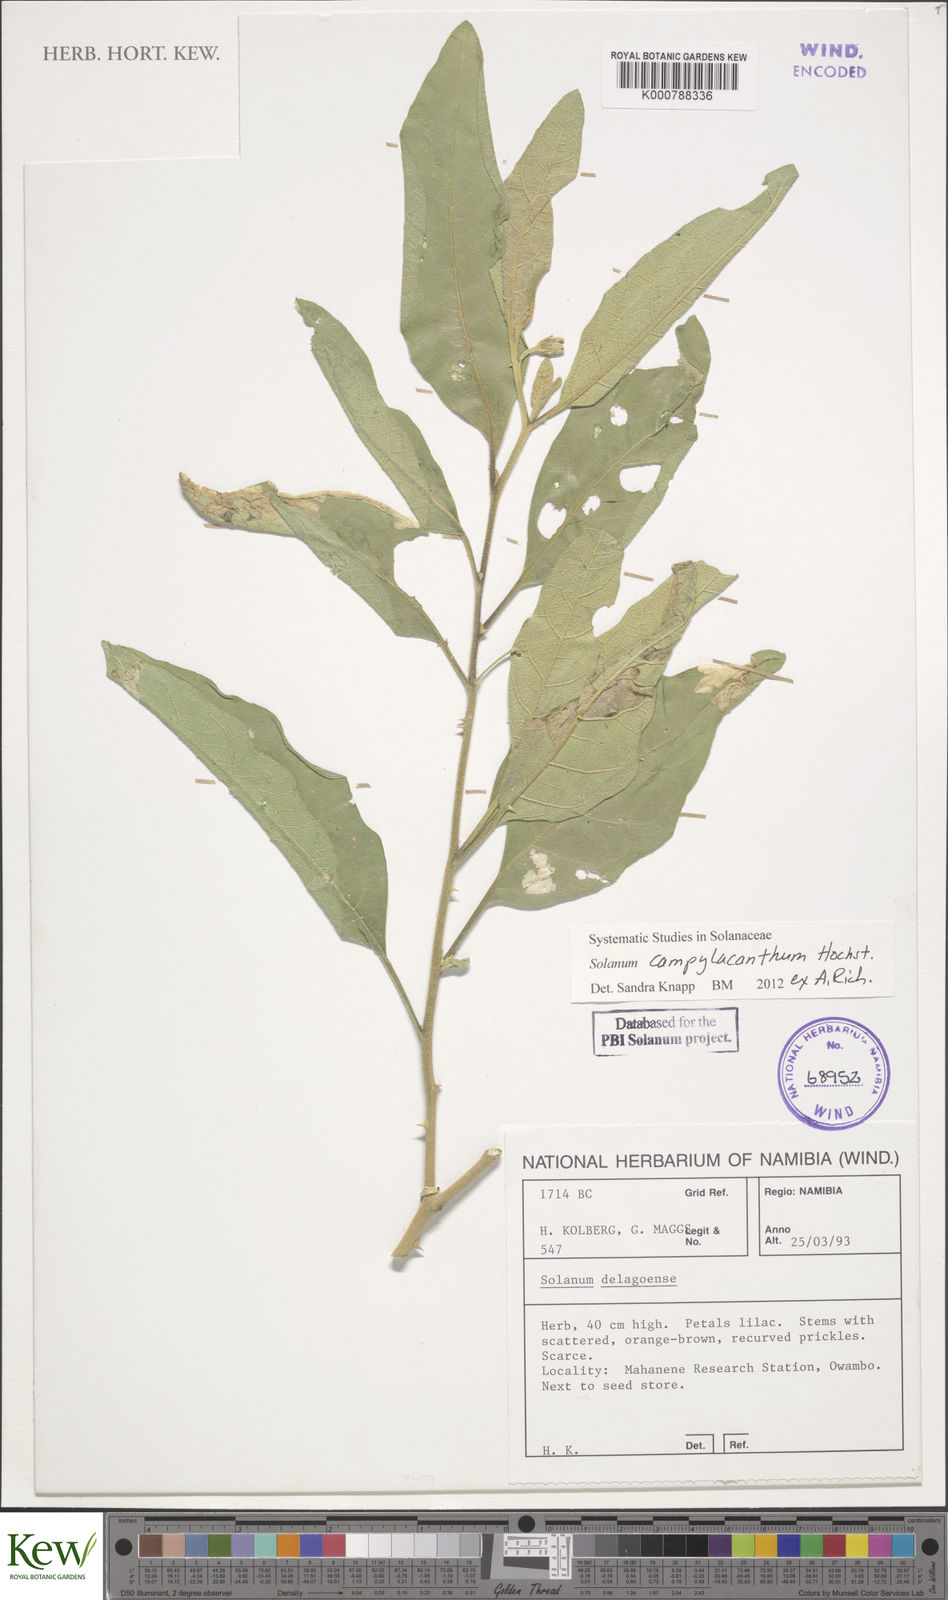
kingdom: Plantae
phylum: Tracheophyta
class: Magnoliopsida
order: Solanales
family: Solanaceae
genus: Solanum
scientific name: Solanum campylacanthum
